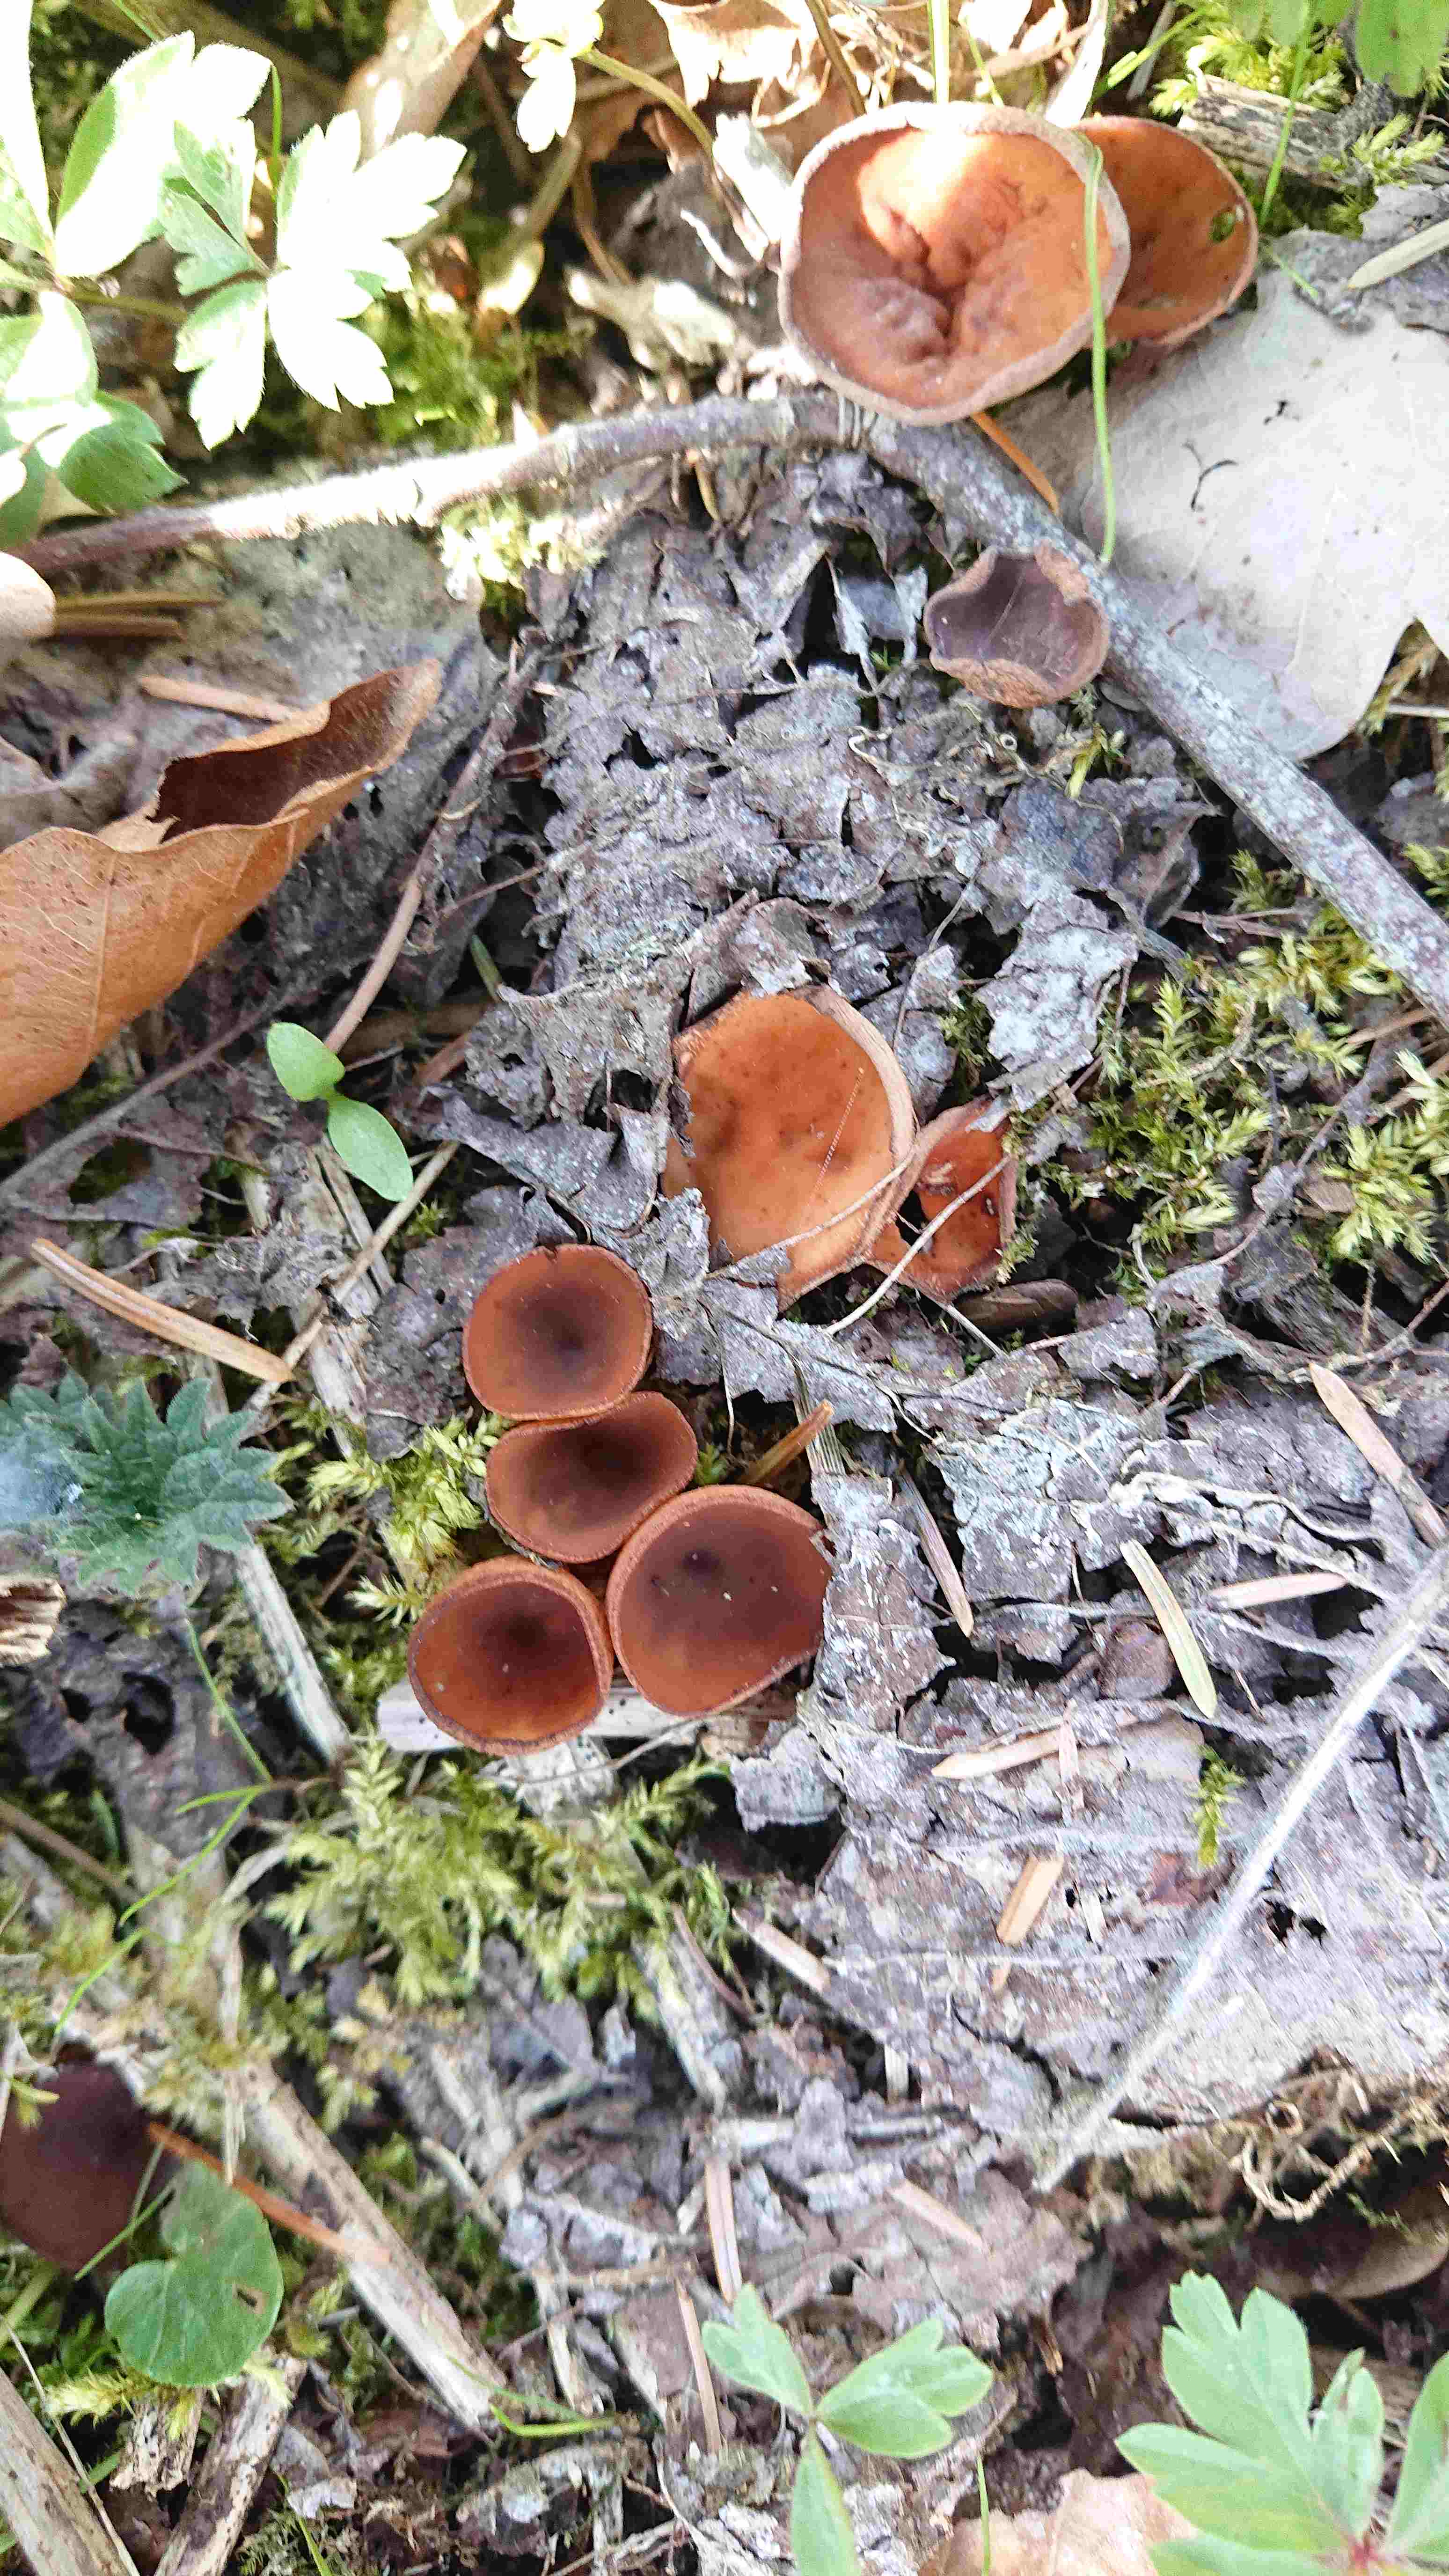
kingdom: Fungi
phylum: Ascomycota
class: Leotiomycetes
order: Helotiales
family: Sclerotiniaceae
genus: Dumontinia
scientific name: Dumontinia tuberosa
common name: anemone-knoldskive
